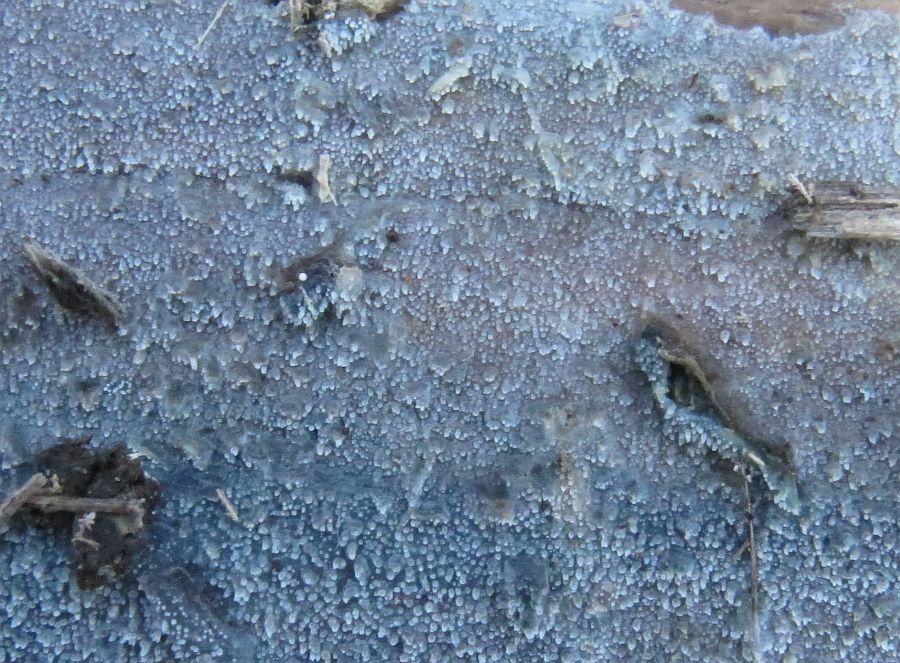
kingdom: Fungi
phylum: Basidiomycota
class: Agaricomycetes
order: Hymenochaetales
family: Rickenellaceae
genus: Resinicium
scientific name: Resinicium bicolor
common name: almindelig vokstand
